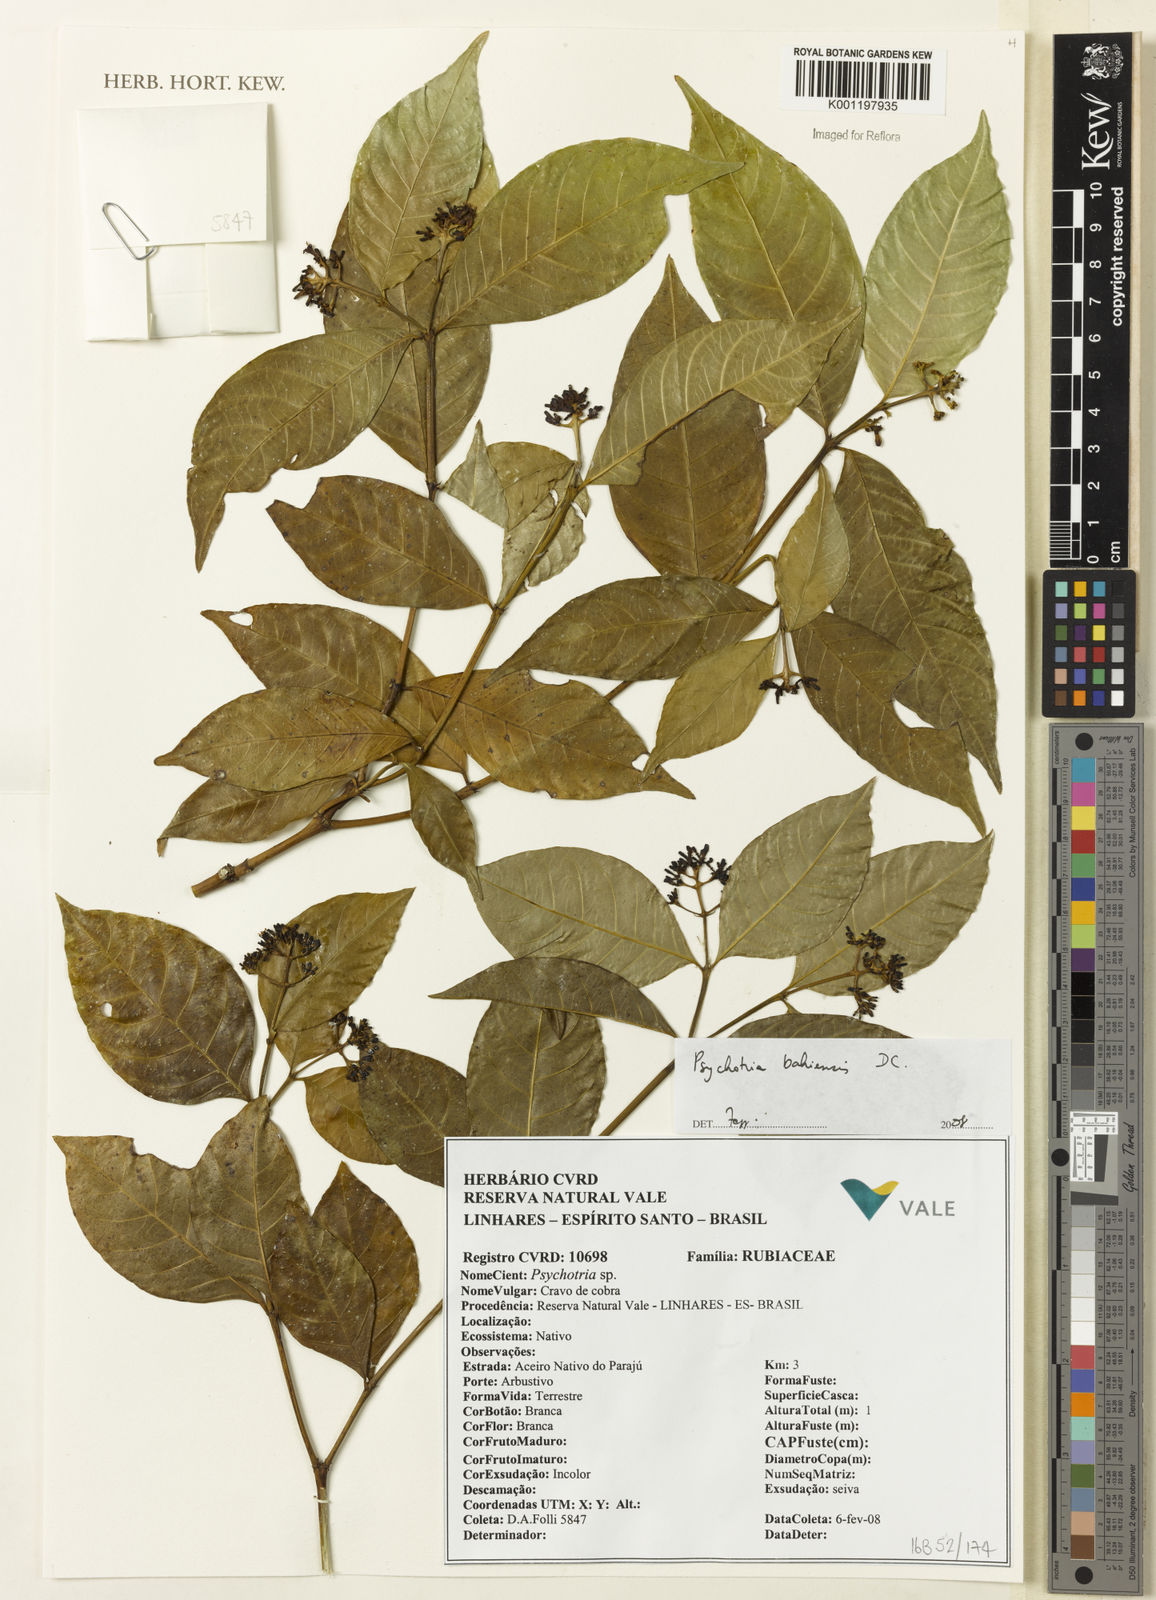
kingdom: Plantae
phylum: Tracheophyta
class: Magnoliopsida
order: Gentianales
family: Rubiaceae
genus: Psychotria
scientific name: Psychotria bahiensis
